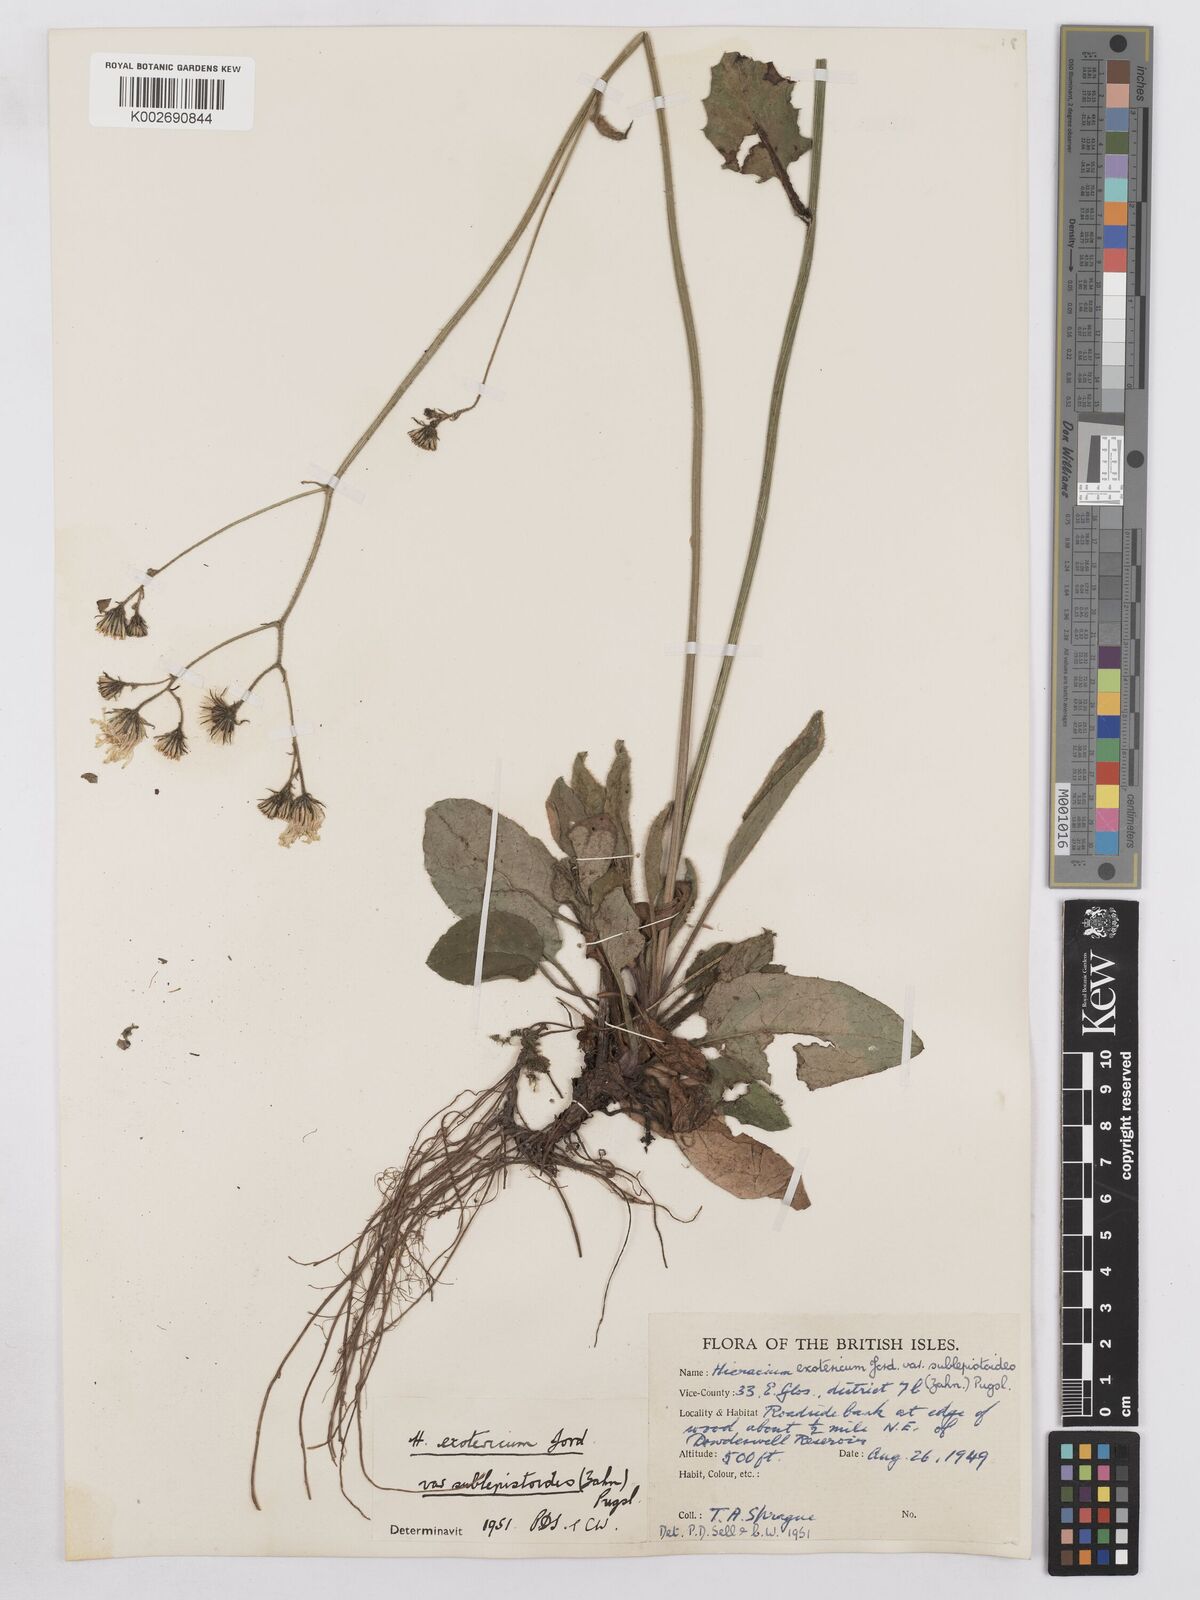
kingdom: Plantae
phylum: Tracheophyta
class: Magnoliopsida
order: Asterales
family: Asteraceae
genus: Hieracium
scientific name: Hieracium murorum
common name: Wall hawkweed
